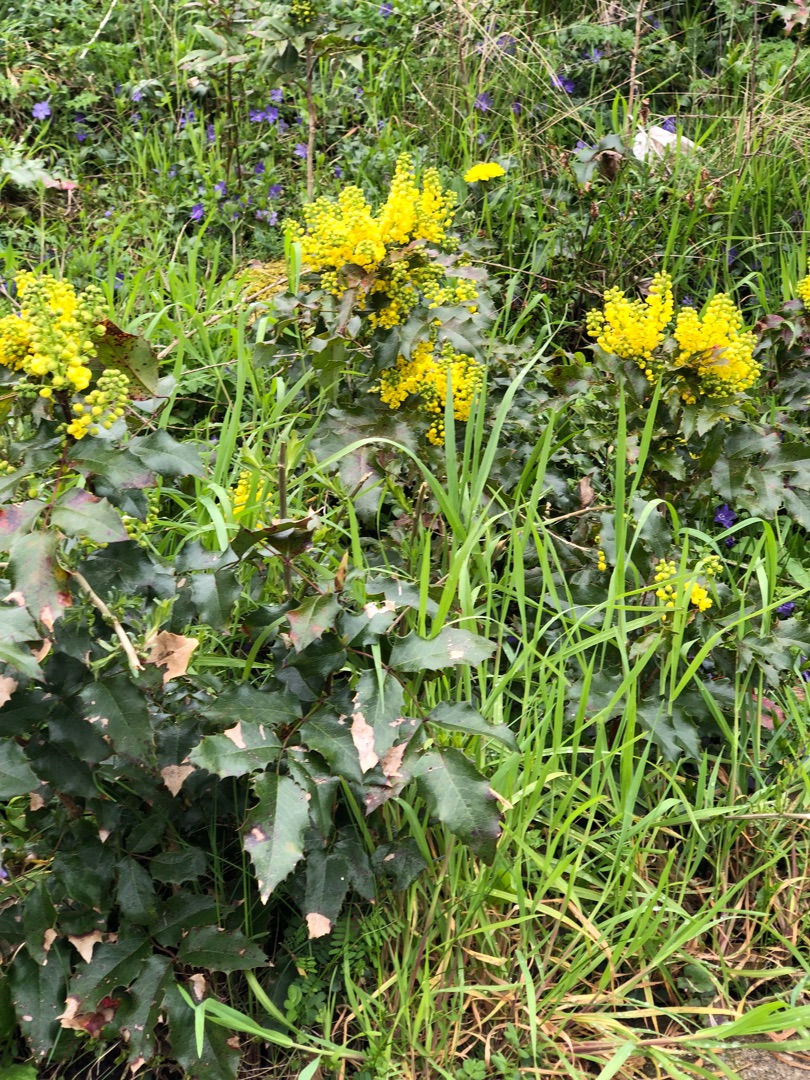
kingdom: Plantae
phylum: Tracheophyta
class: Magnoliopsida
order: Ranunculales
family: Berberidaceae
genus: Mahonia
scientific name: Mahonia aquifolium
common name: Almindelig mahonie
